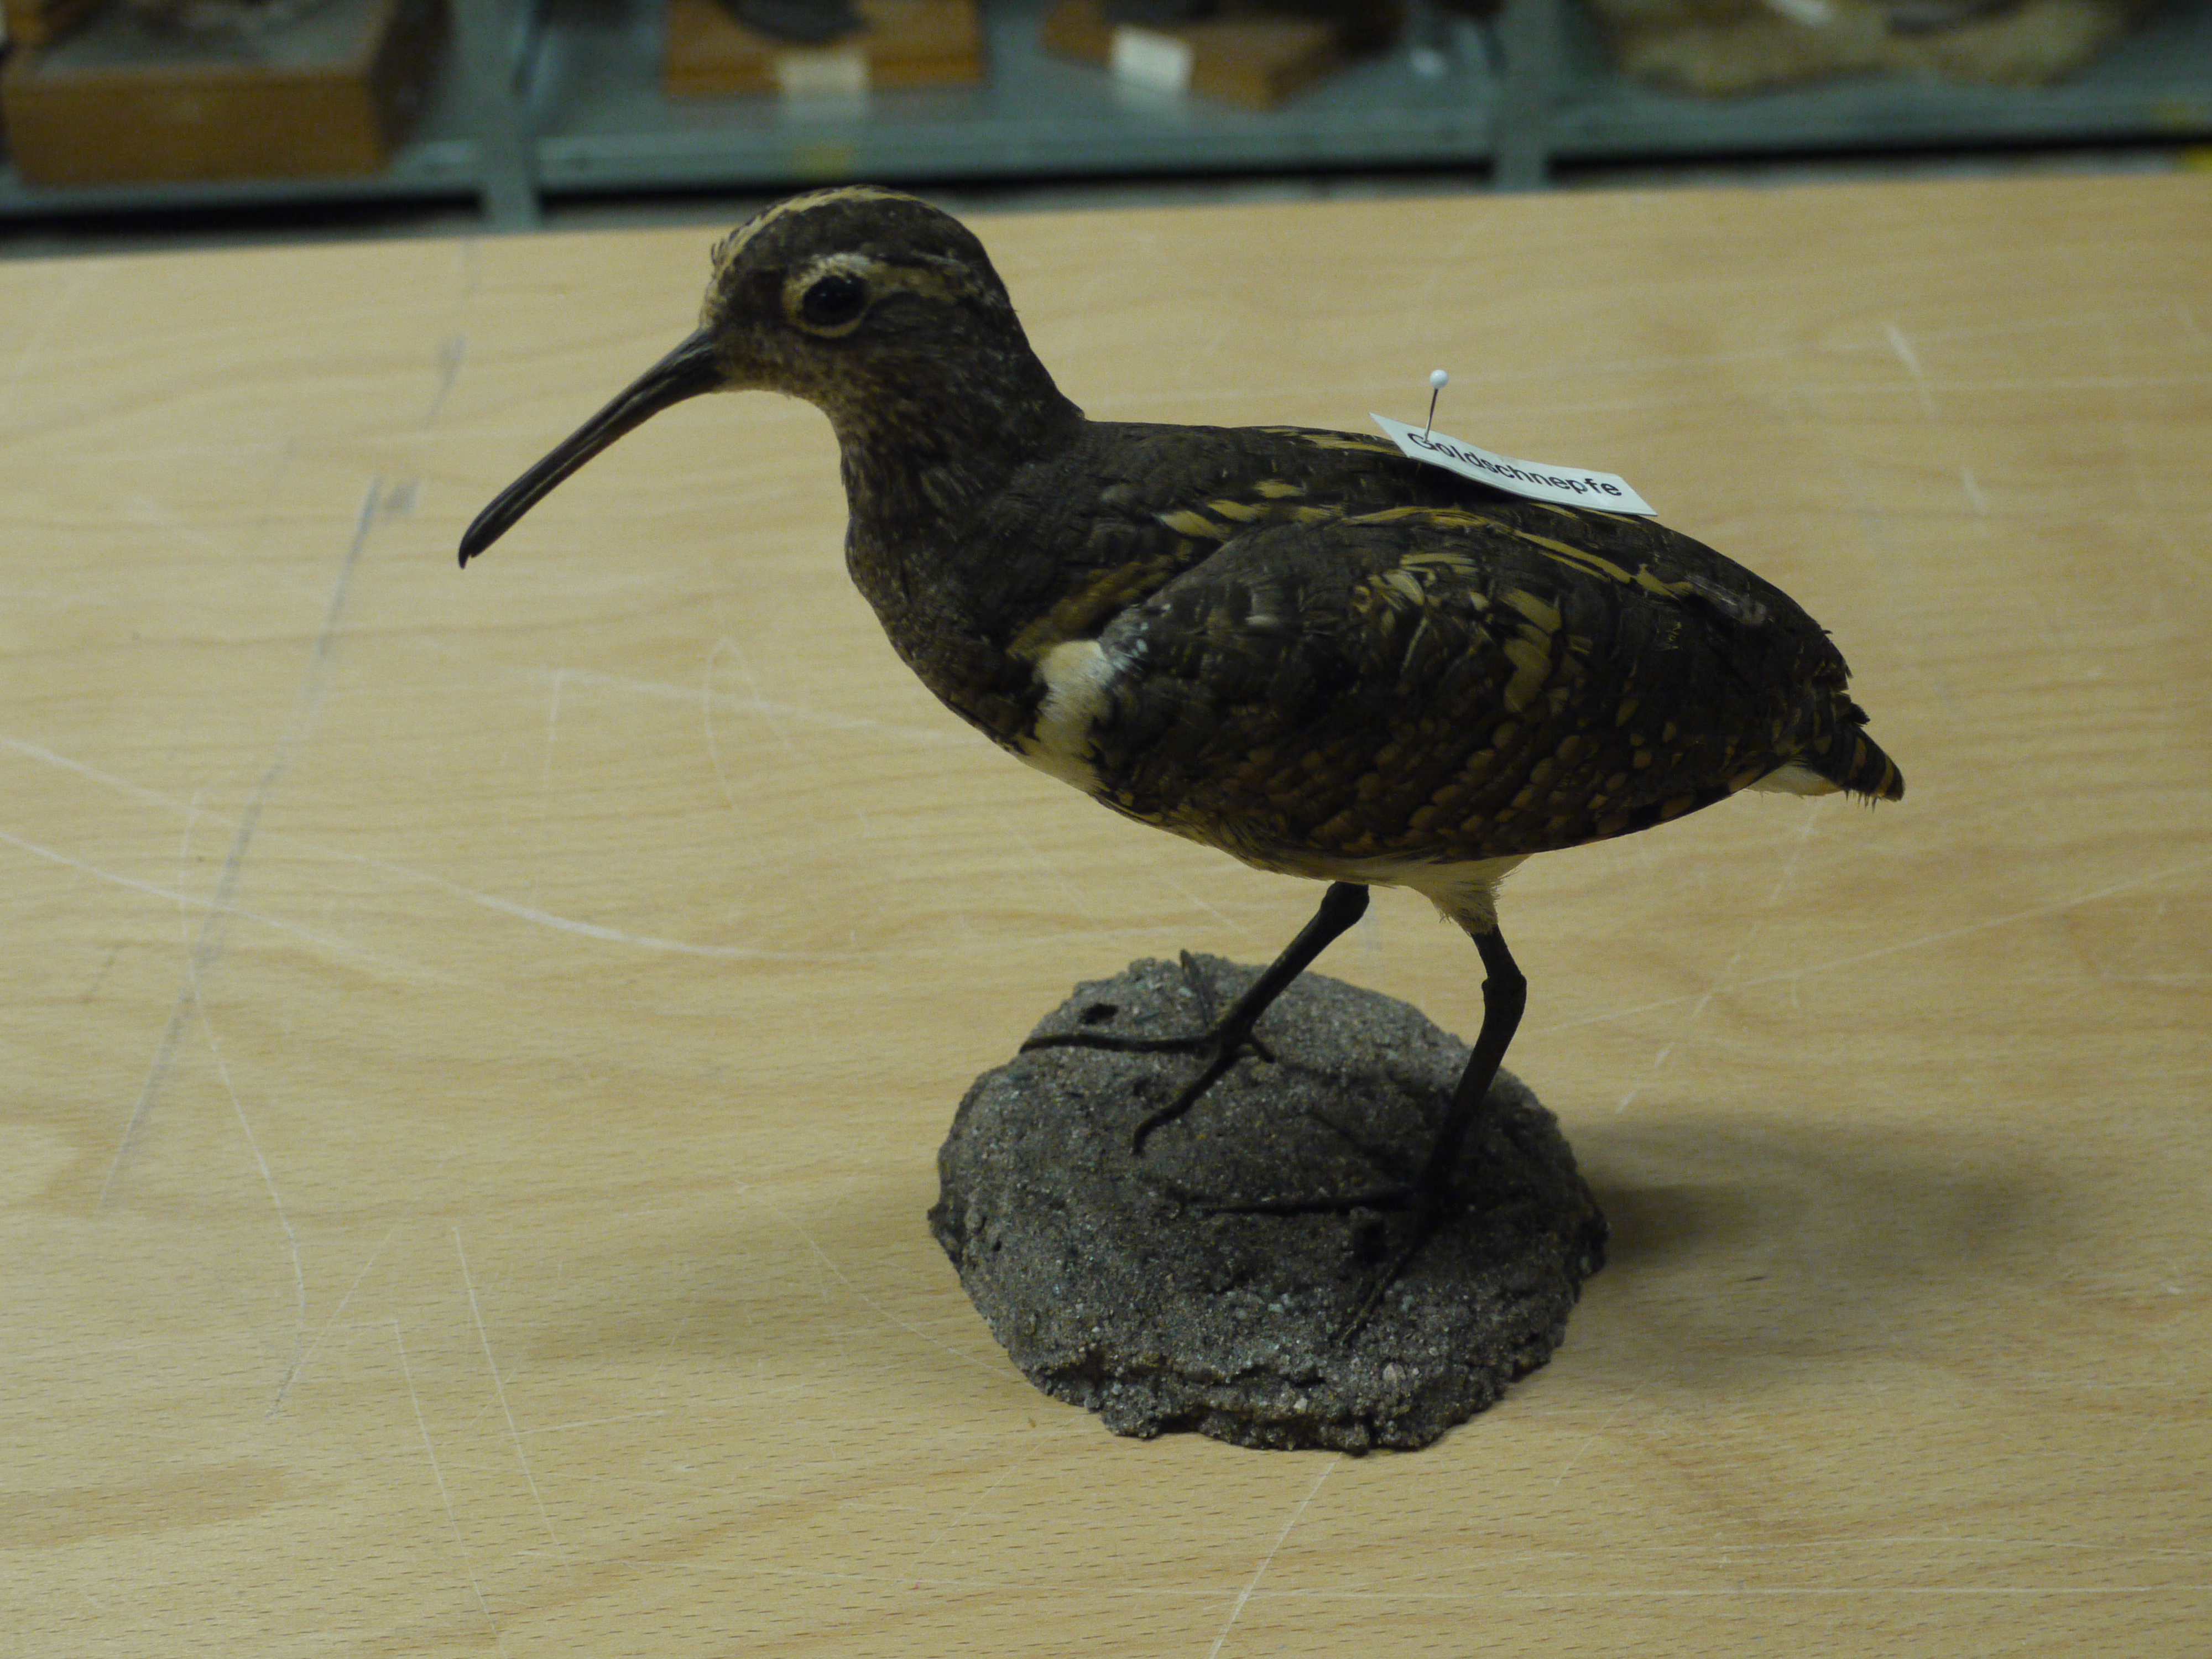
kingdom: Animalia
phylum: Chordata
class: Aves
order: Charadriiformes
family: Rostratulidae
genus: Rostratula
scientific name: Rostratula benghalensis
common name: Greater painted-snipe
